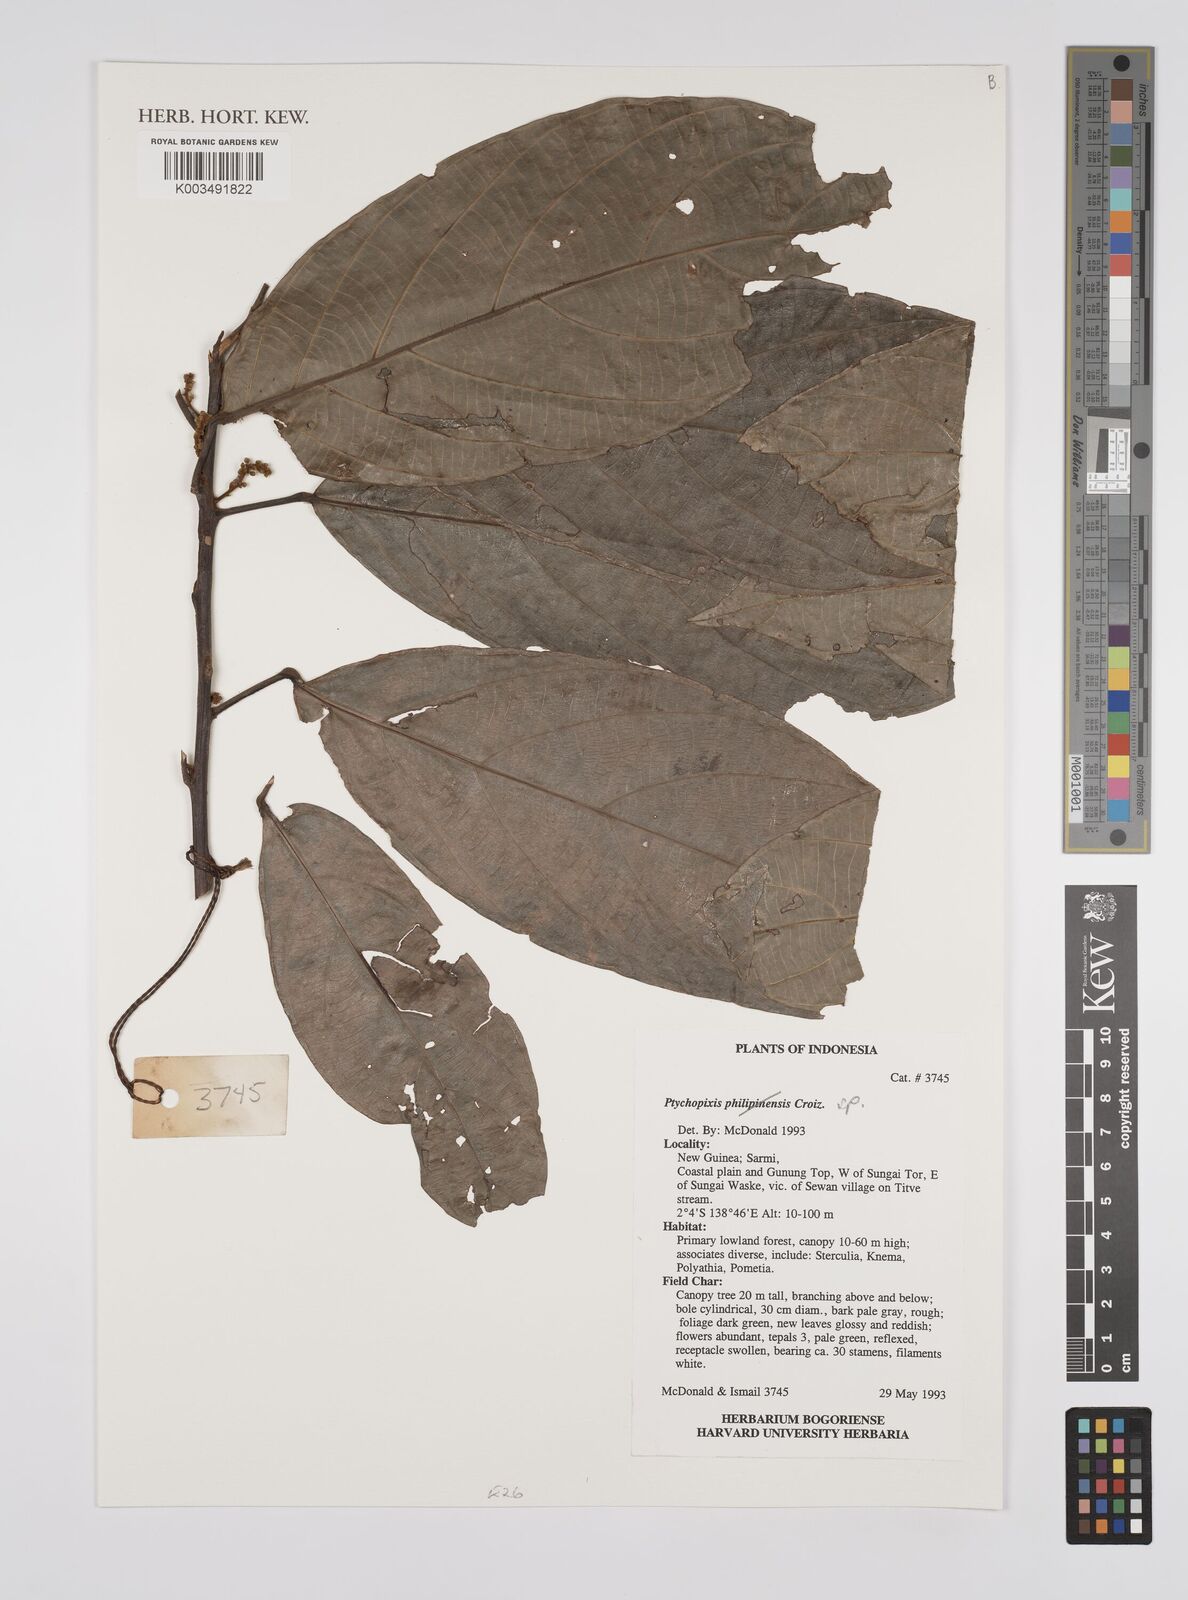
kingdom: Plantae
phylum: Tracheophyta
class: Magnoliopsida
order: Malpighiales
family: Euphorbiaceae
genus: Ptychopyxis
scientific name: Ptychopyxis
